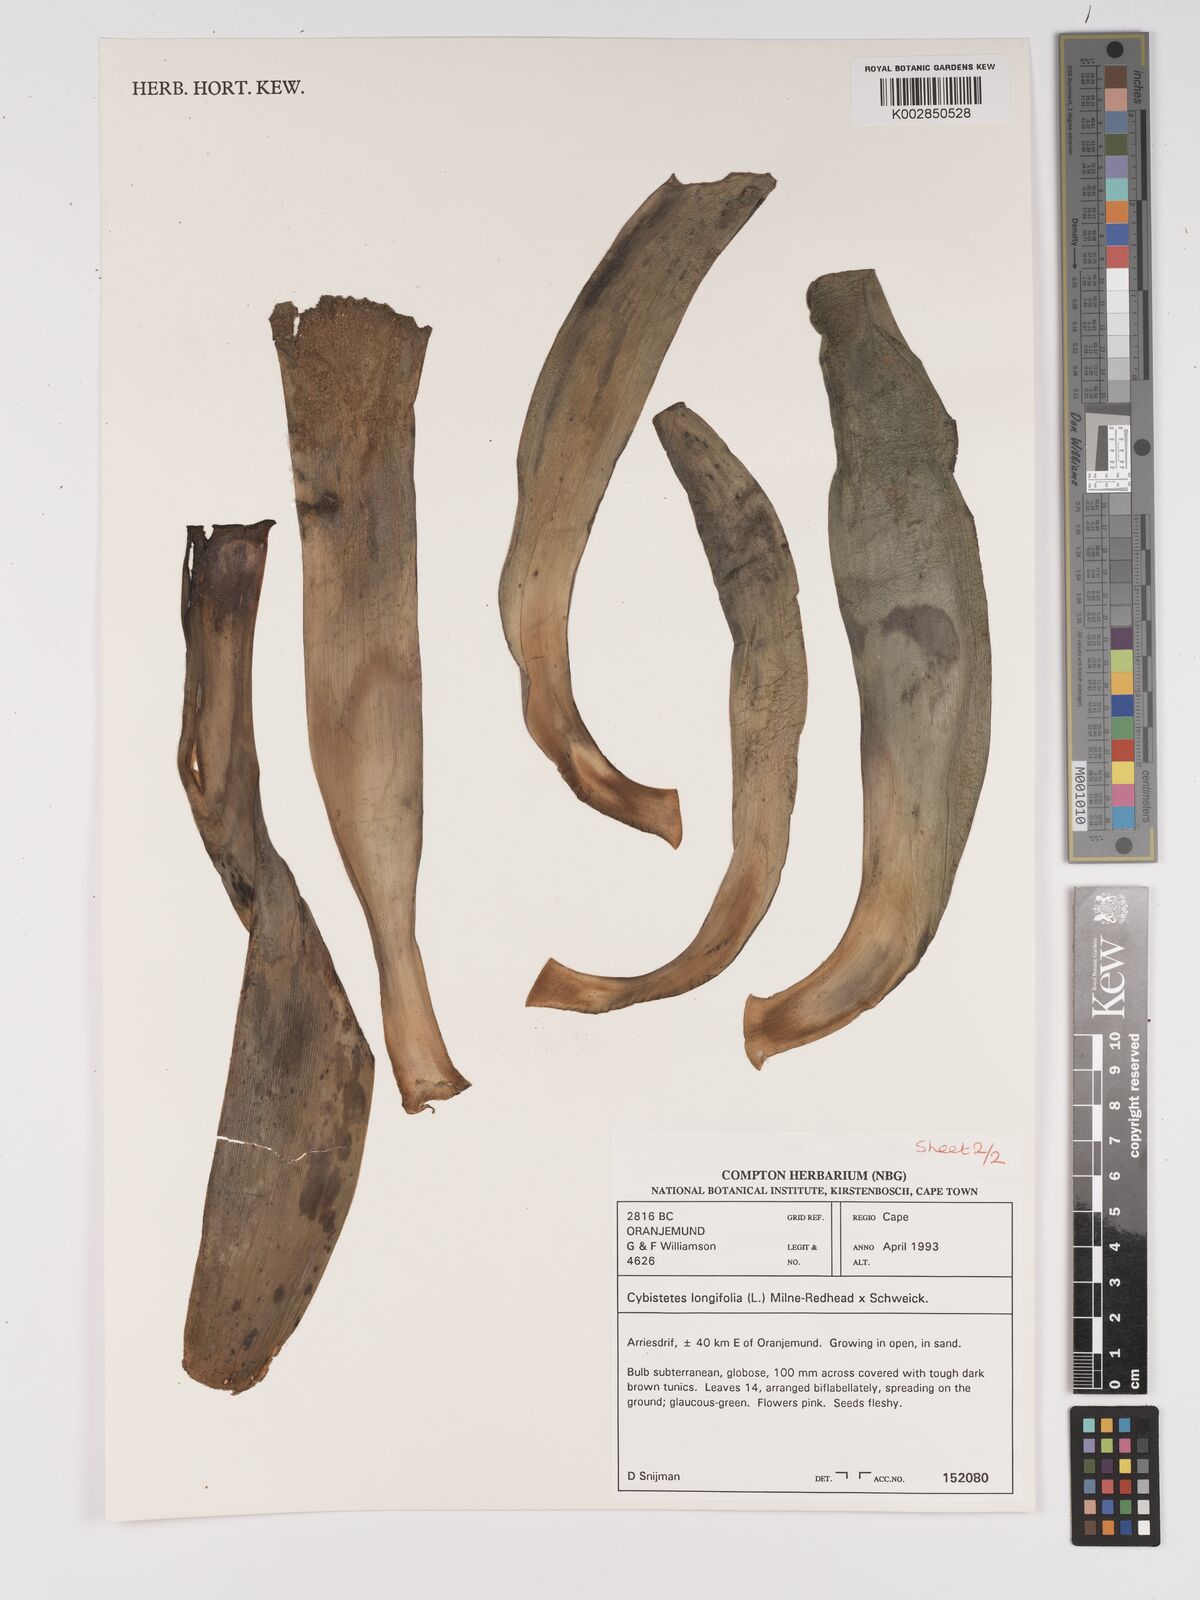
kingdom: Plantae
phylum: Tracheophyta
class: Liliopsida
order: Asparagales
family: Amaryllidaceae
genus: Ammocharis
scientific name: Ammocharis longifolia
